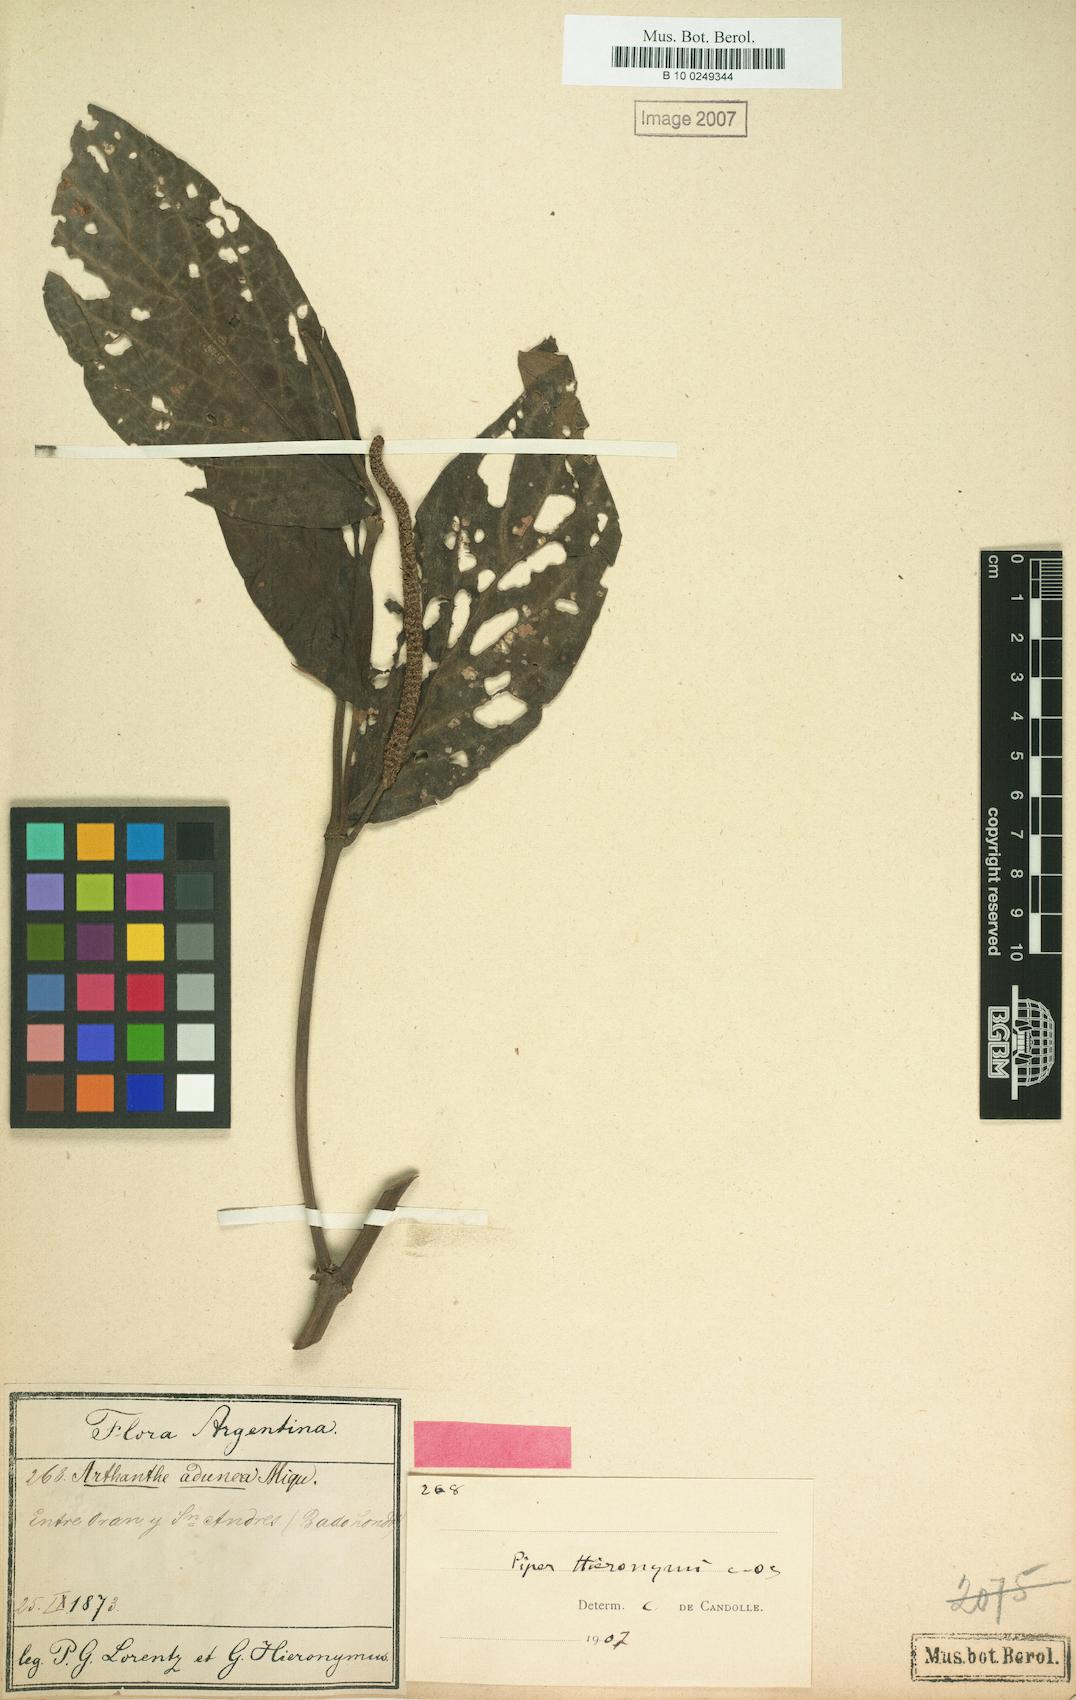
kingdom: Plantae
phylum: Tracheophyta
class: Magnoliopsida
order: Piperales
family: Piperaceae
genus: Piper
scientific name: Piper hieronymi
